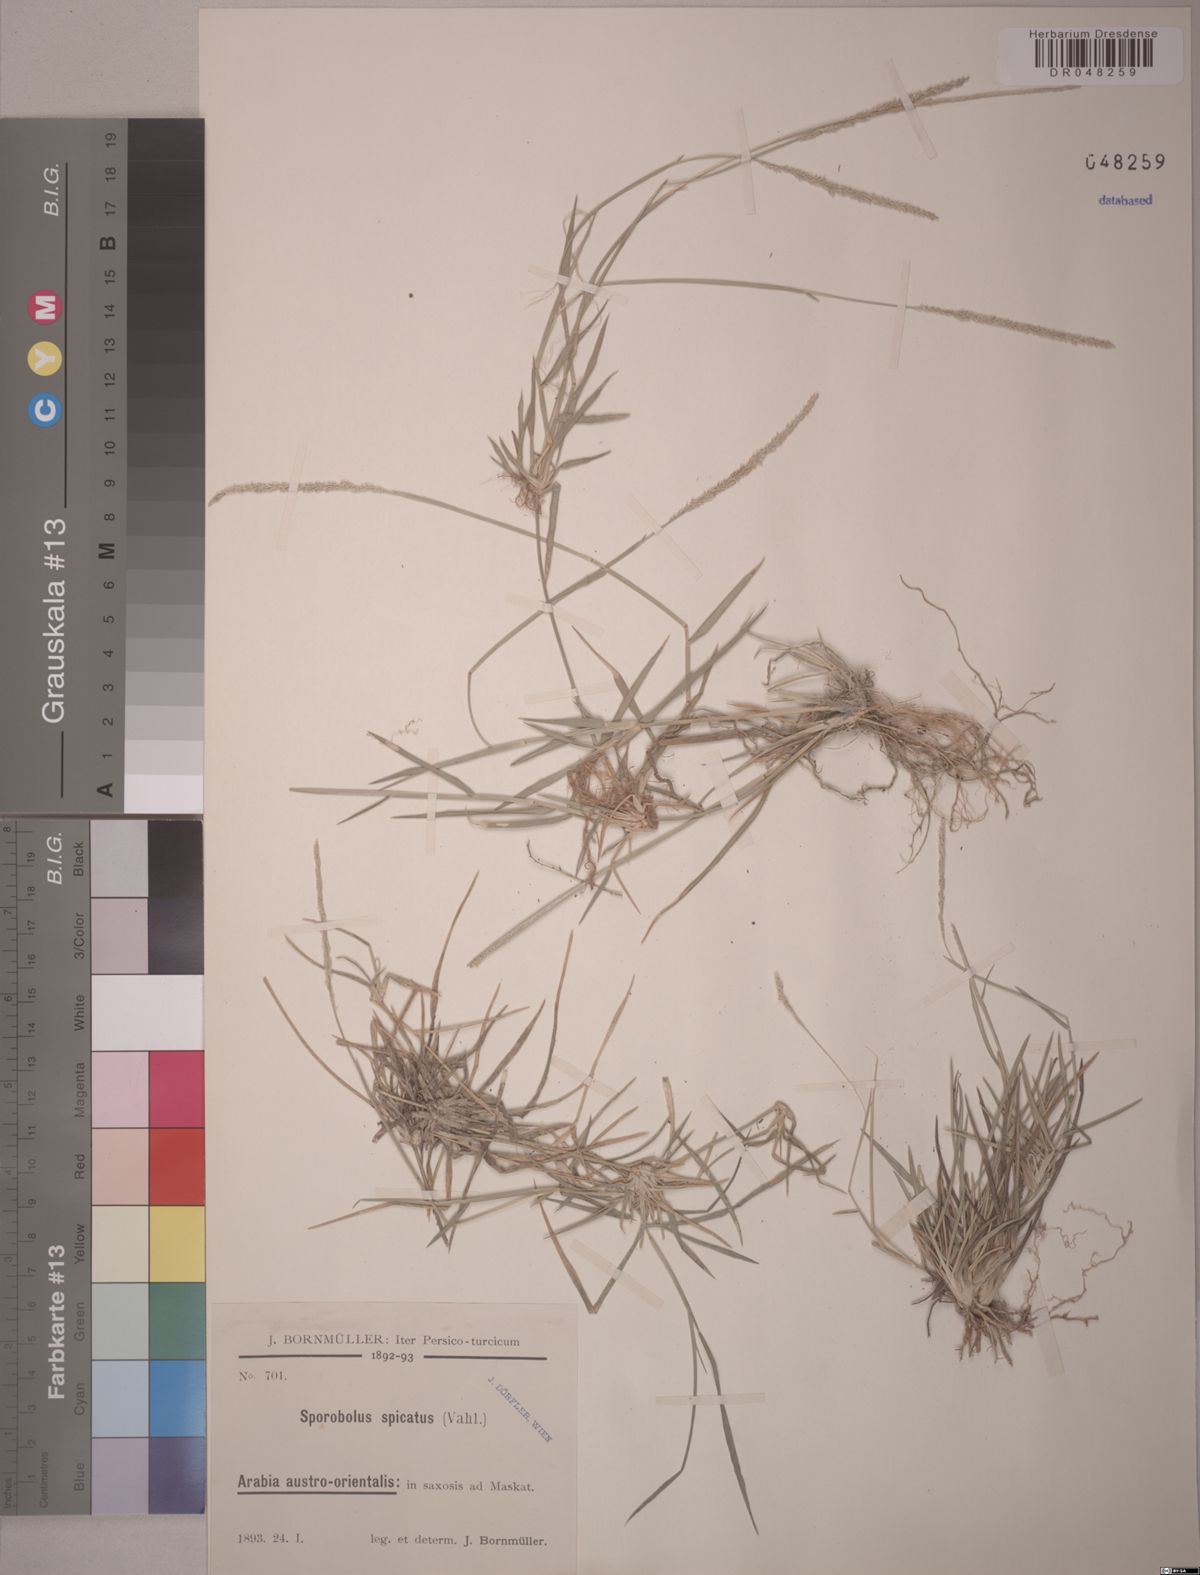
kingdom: Plantae
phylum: Tracheophyta
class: Liliopsida
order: Poales
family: Poaceae
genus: Sporobolus
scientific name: Sporobolus spicatus
